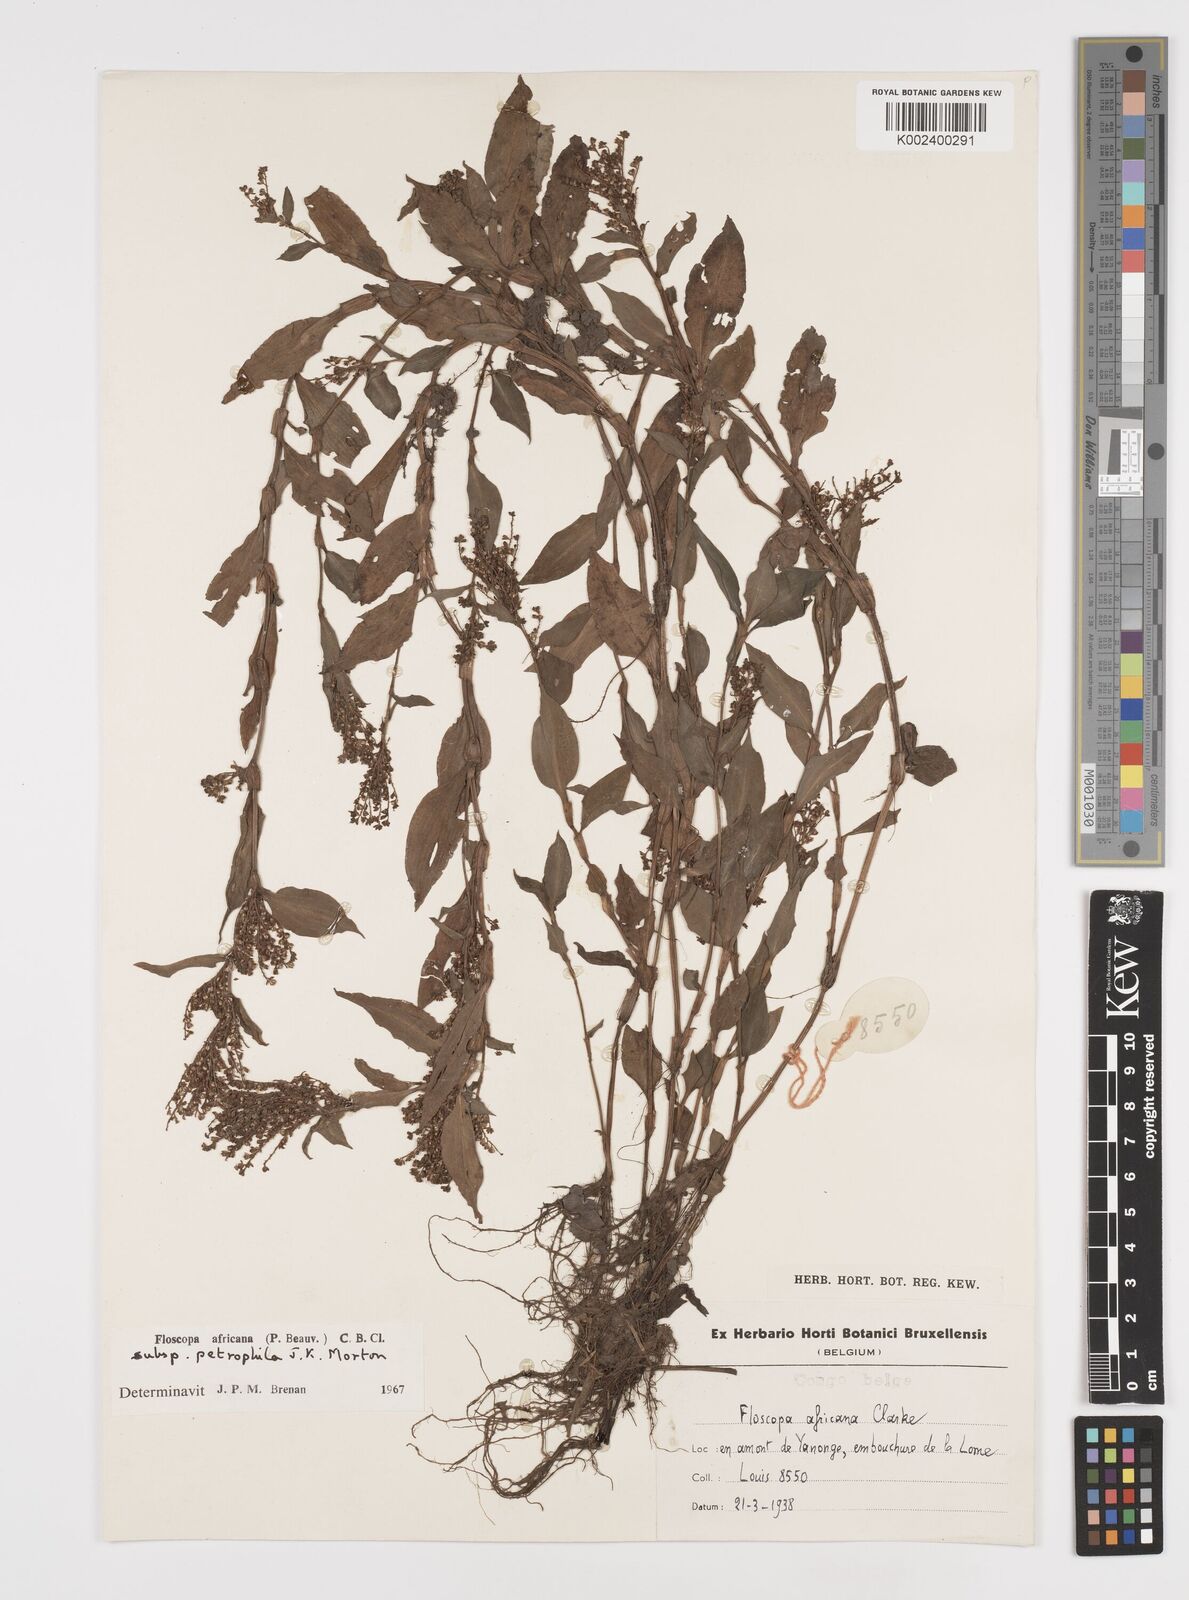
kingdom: Plantae
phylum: Tracheophyta
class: Liliopsida
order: Commelinales
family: Commelinaceae
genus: Floscopa
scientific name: Floscopa africana
